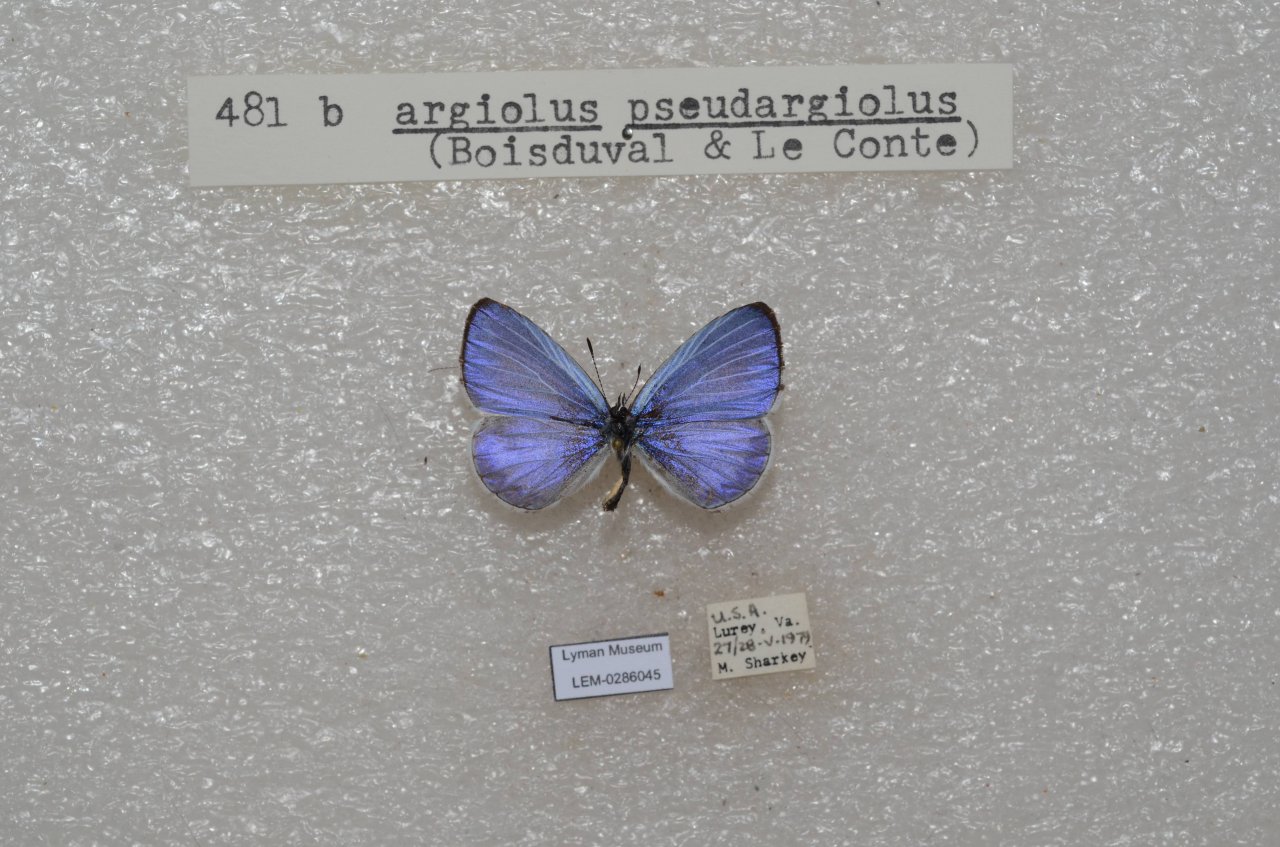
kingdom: Animalia
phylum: Arthropoda
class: Insecta
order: Lepidoptera
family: Lycaenidae
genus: Celastrina
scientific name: Celastrina
